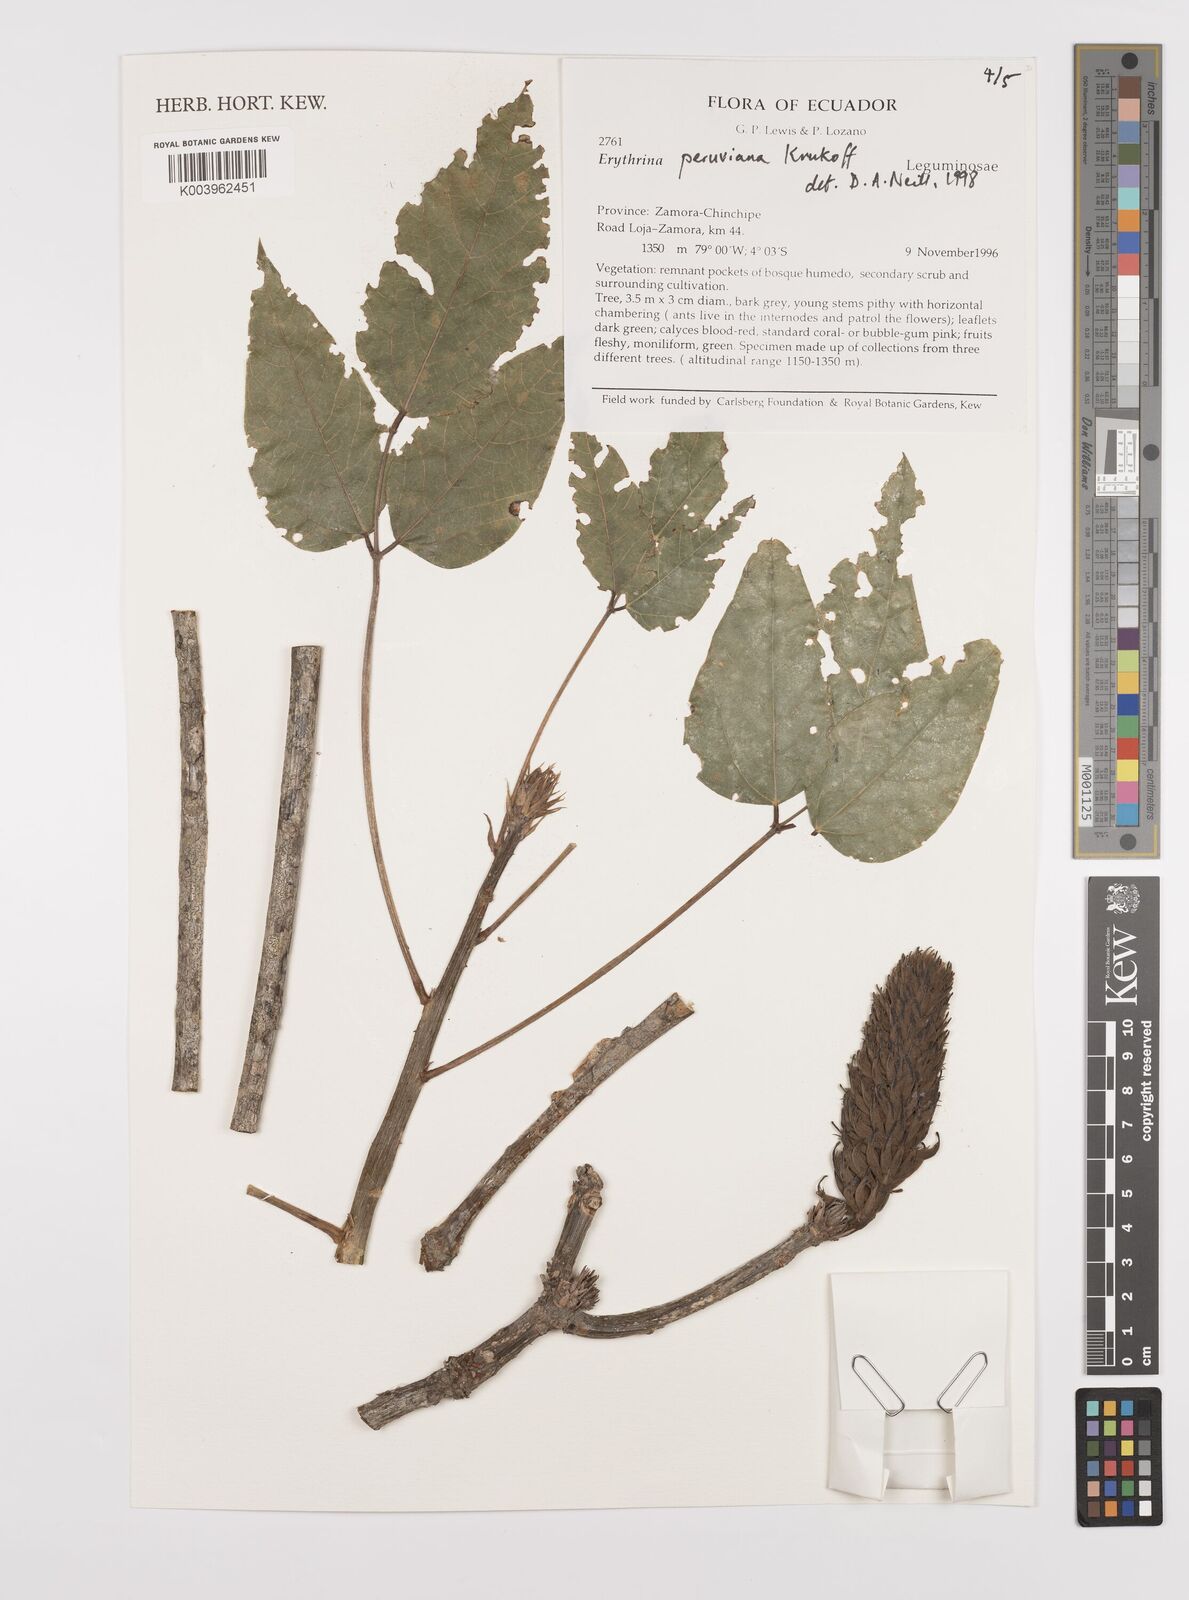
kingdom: Plantae
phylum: Tracheophyta
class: Magnoliopsida
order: Fabales
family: Fabaceae
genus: Erythrina
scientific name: Erythrina peruviana
